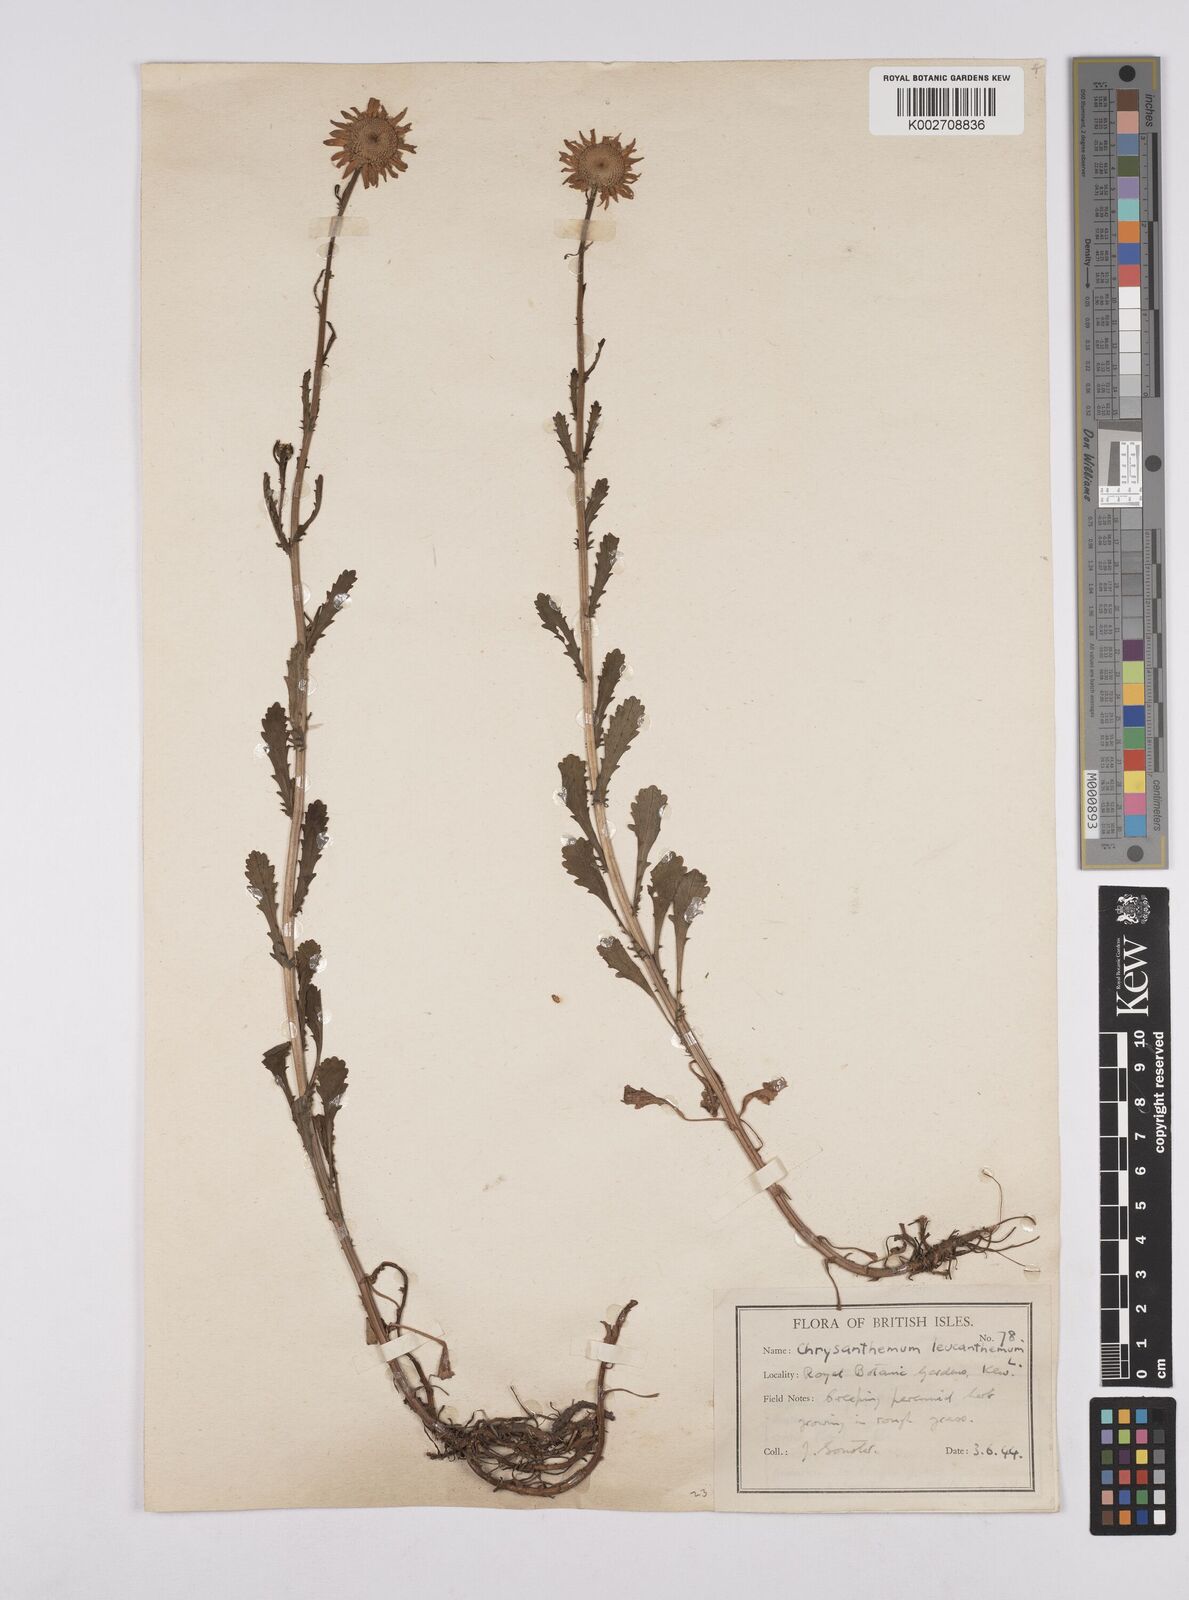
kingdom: Plantae
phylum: Tracheophyta
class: Magnoliopsida
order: Asterales
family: Asteraceae
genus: Leucanthemum
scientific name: Leucanthemum
